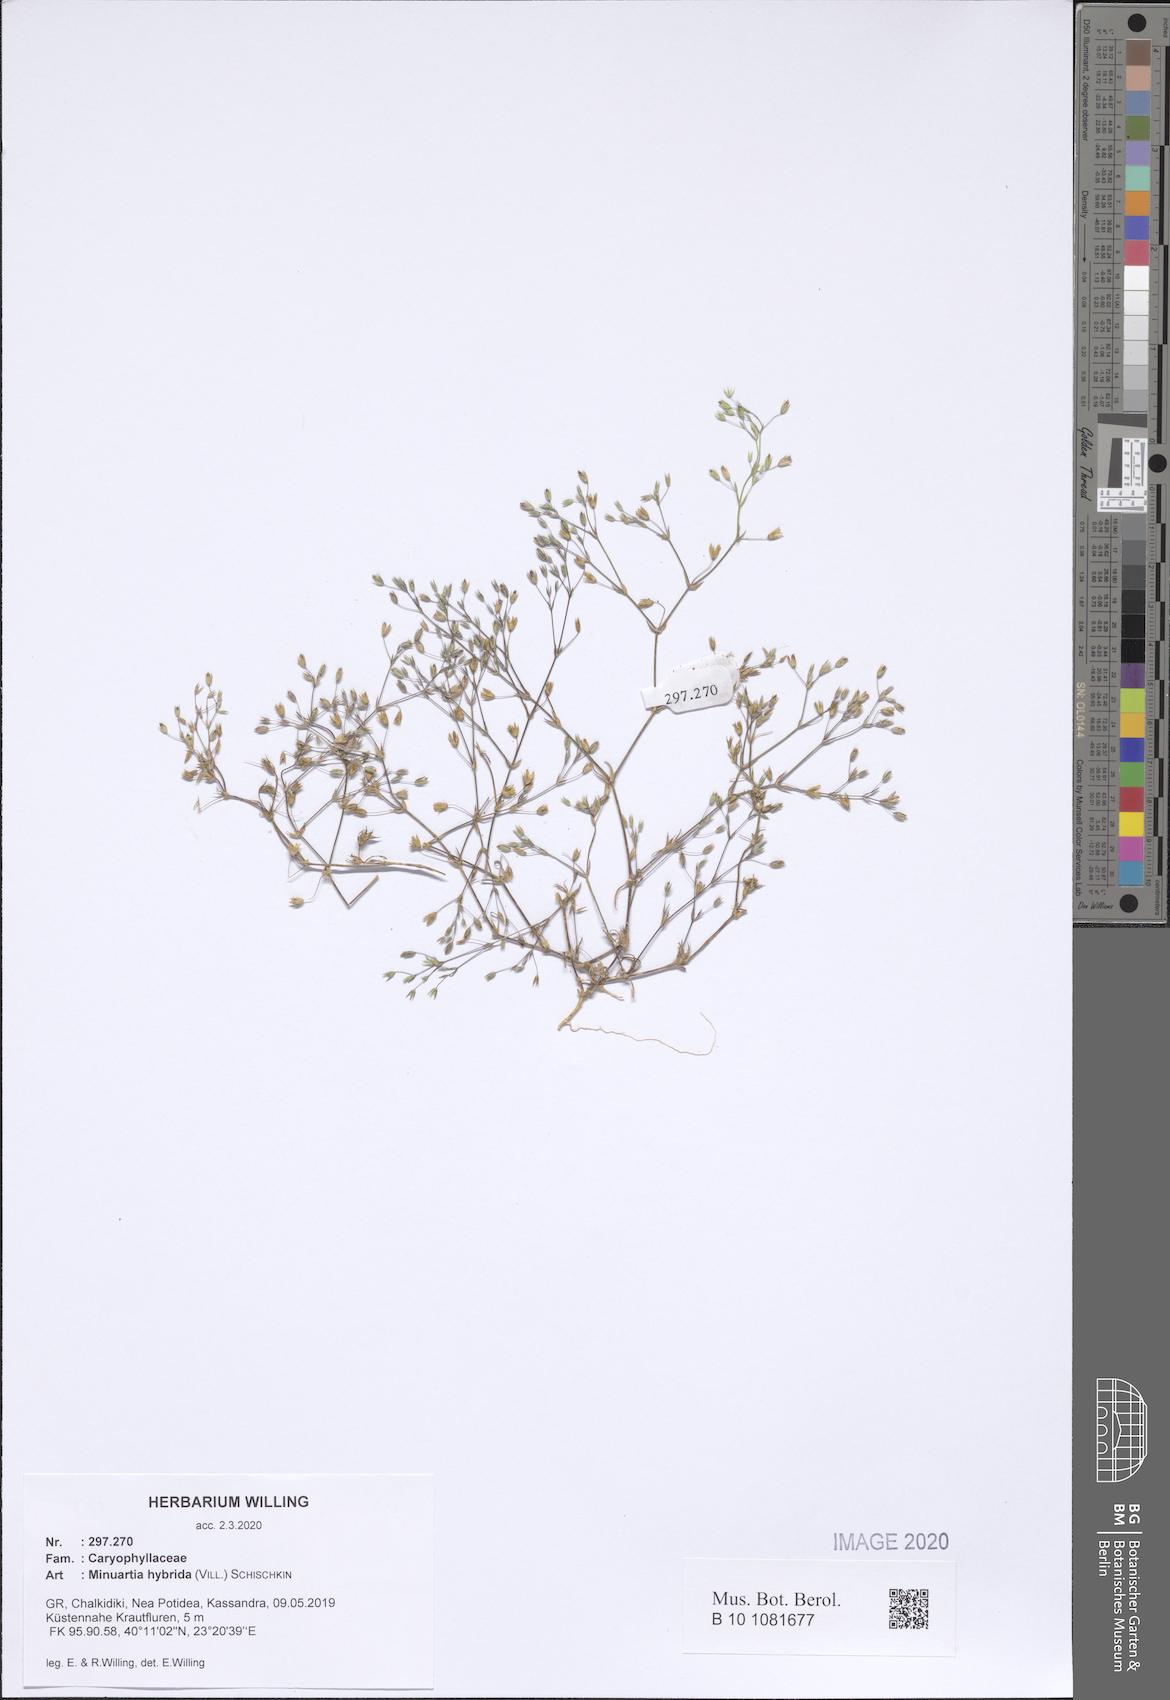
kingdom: Plantae
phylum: Tracheophyta
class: Magnoliopsida
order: Caryophyllales
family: Caryophyllaceae
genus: Sabulina
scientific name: Sabulina tenuifolia
